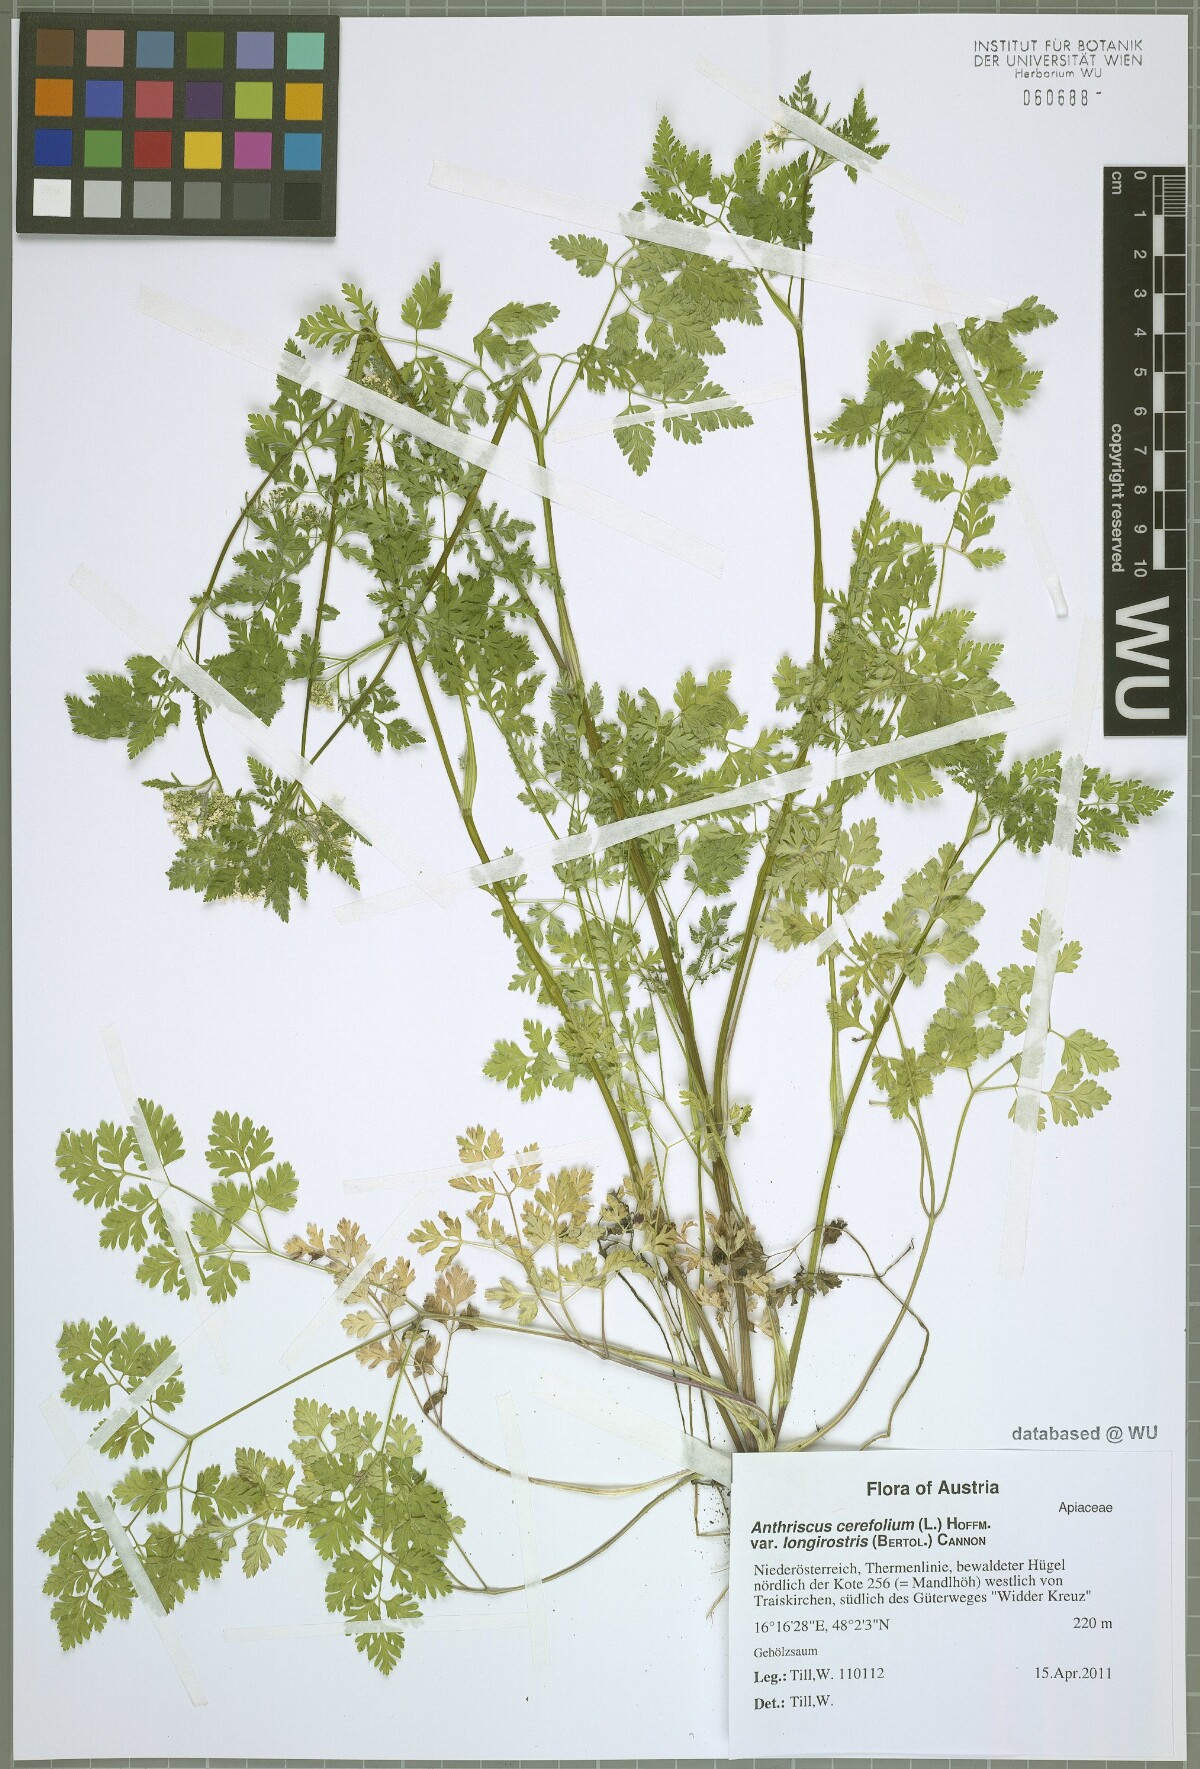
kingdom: Plantae
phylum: Tracheophyta
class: Magnoliopsida
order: Apiales
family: Apiaceae
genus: Anthriscus
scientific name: Anthriscus cerefolium
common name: Garden chervil
